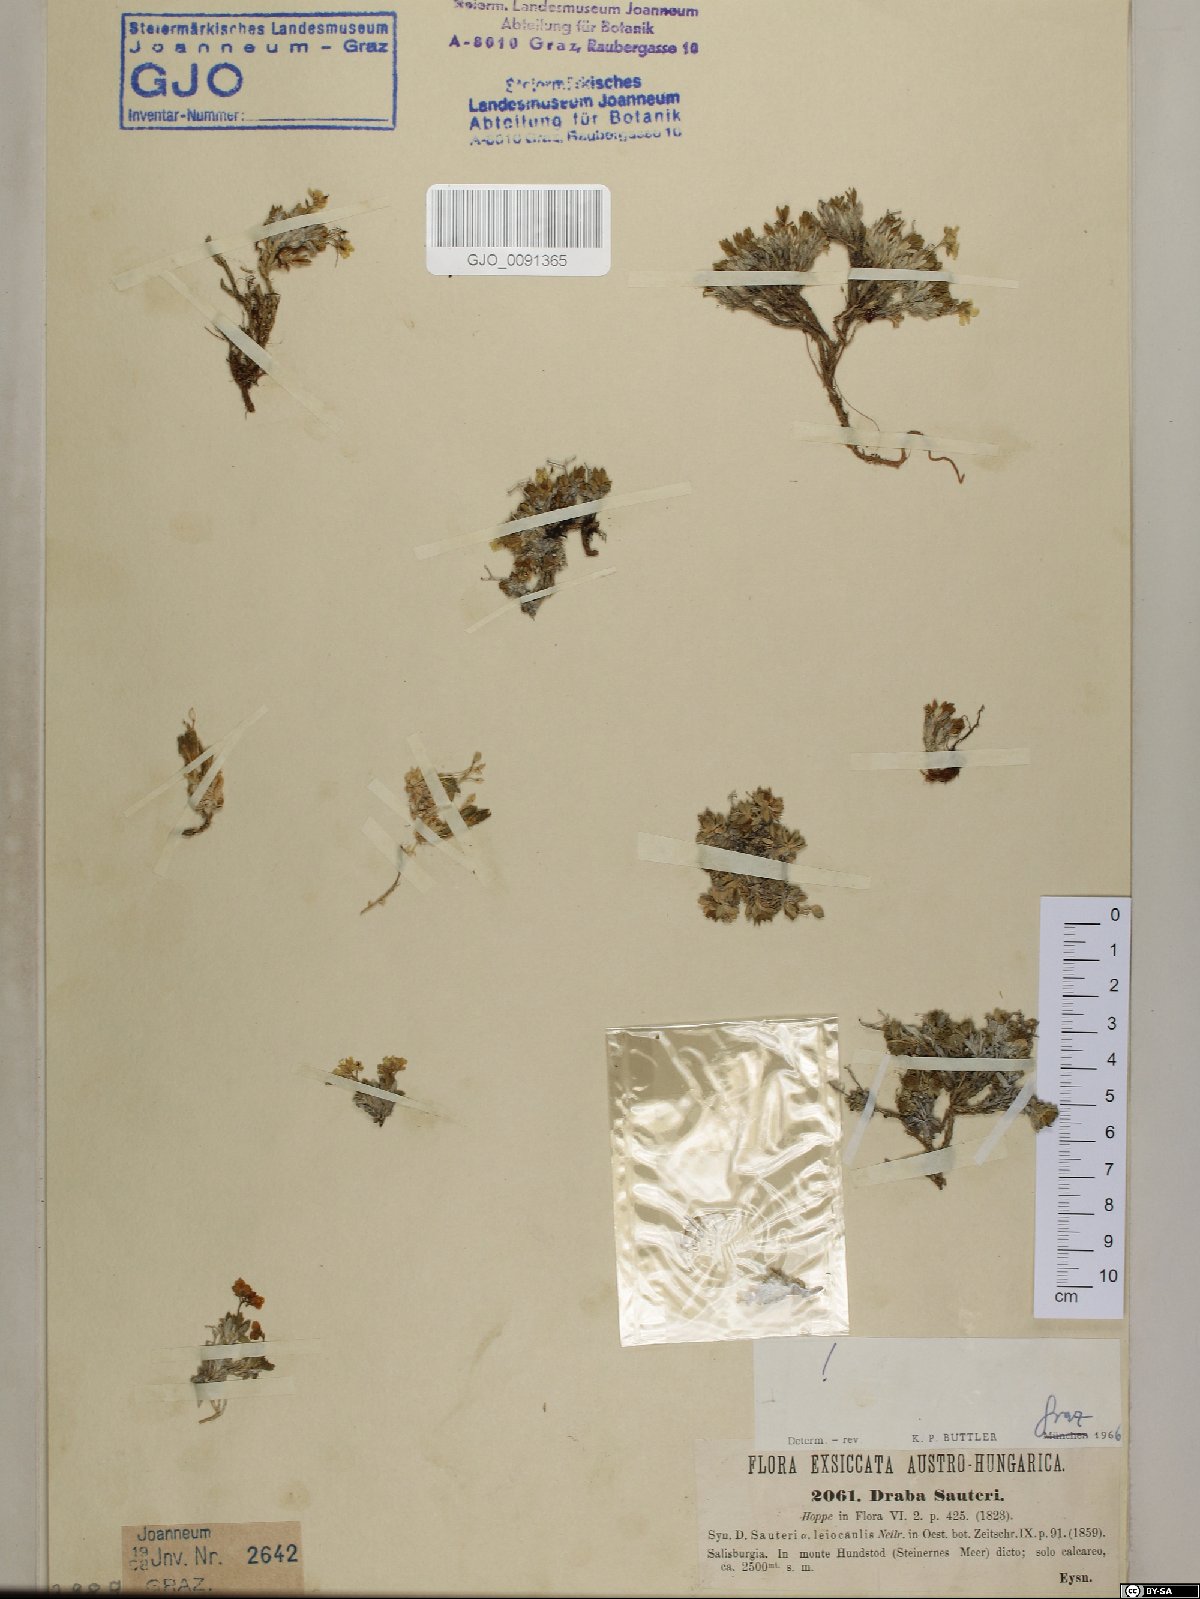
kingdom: Plantae
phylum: Tracheophyta
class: Magnoliopsida
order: Brassicales
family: Brassicaceae
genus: Draba
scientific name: Draba sauteri
